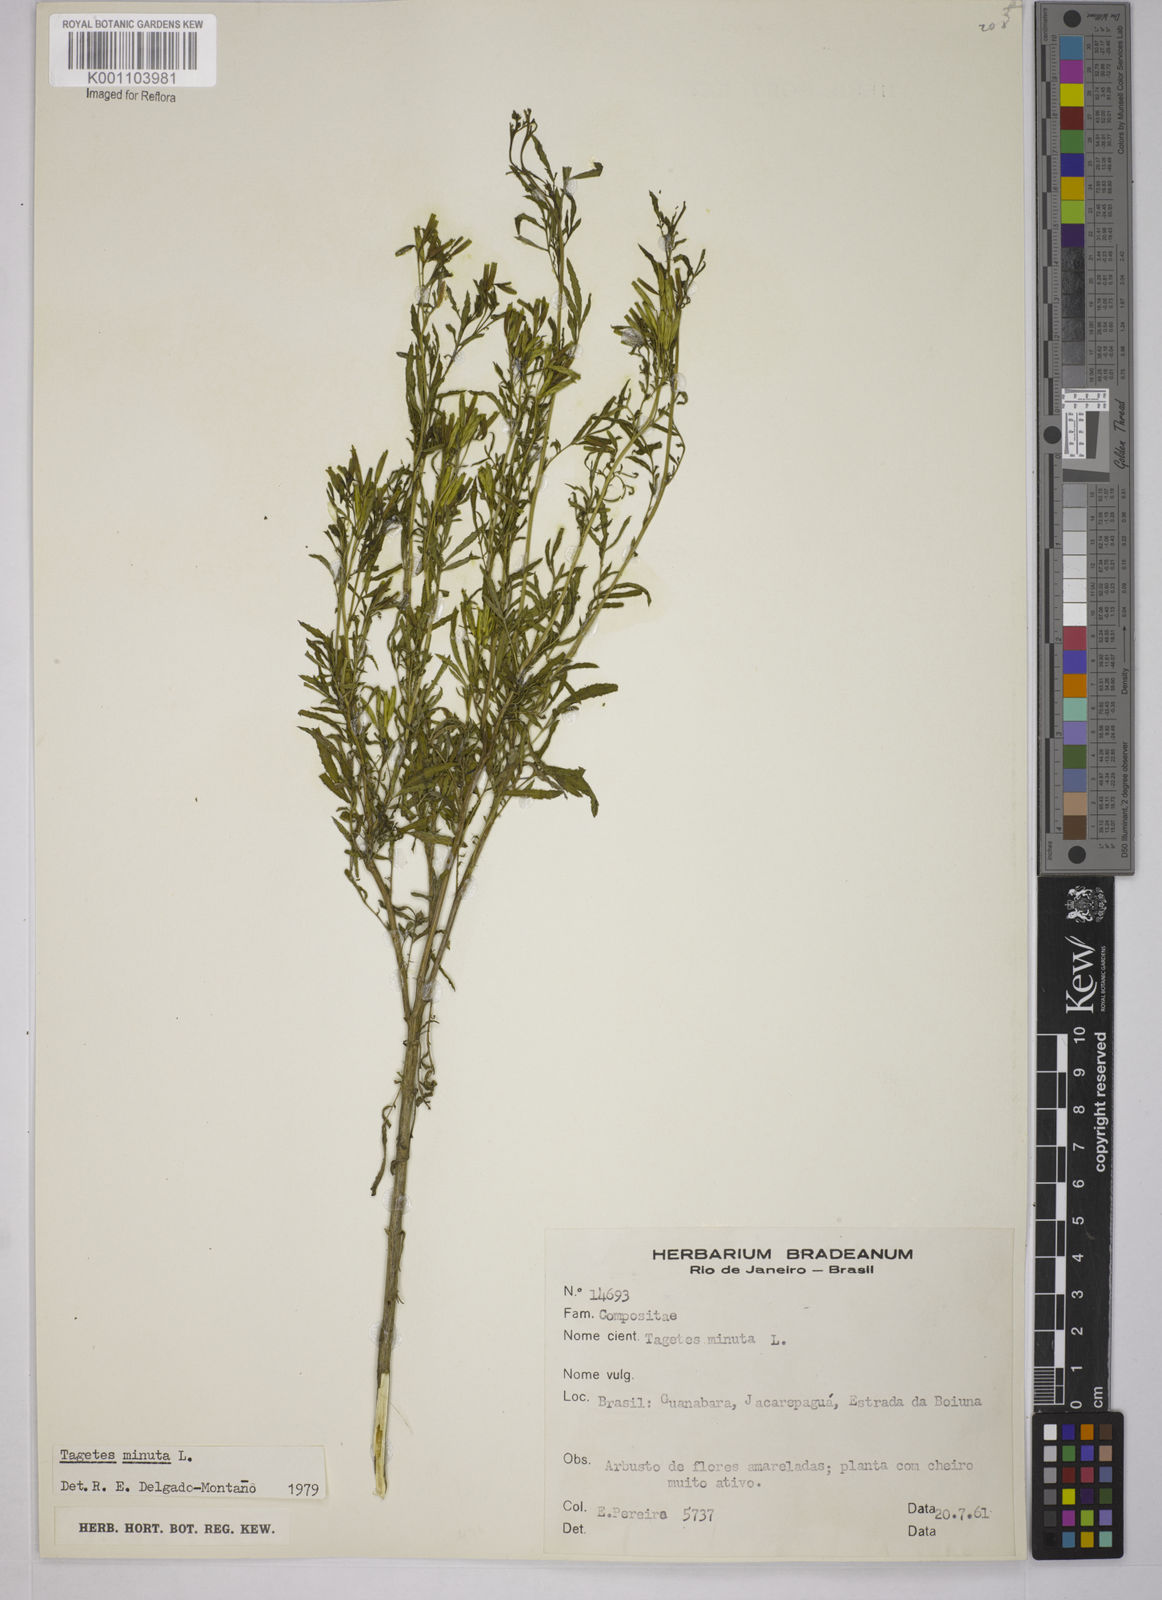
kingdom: Plantae
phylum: Tracheophyta
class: Magnoliopsida
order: Asterales
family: Asteraceae
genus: Tagetes
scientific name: Tagetes minuta
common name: Muster john henry
